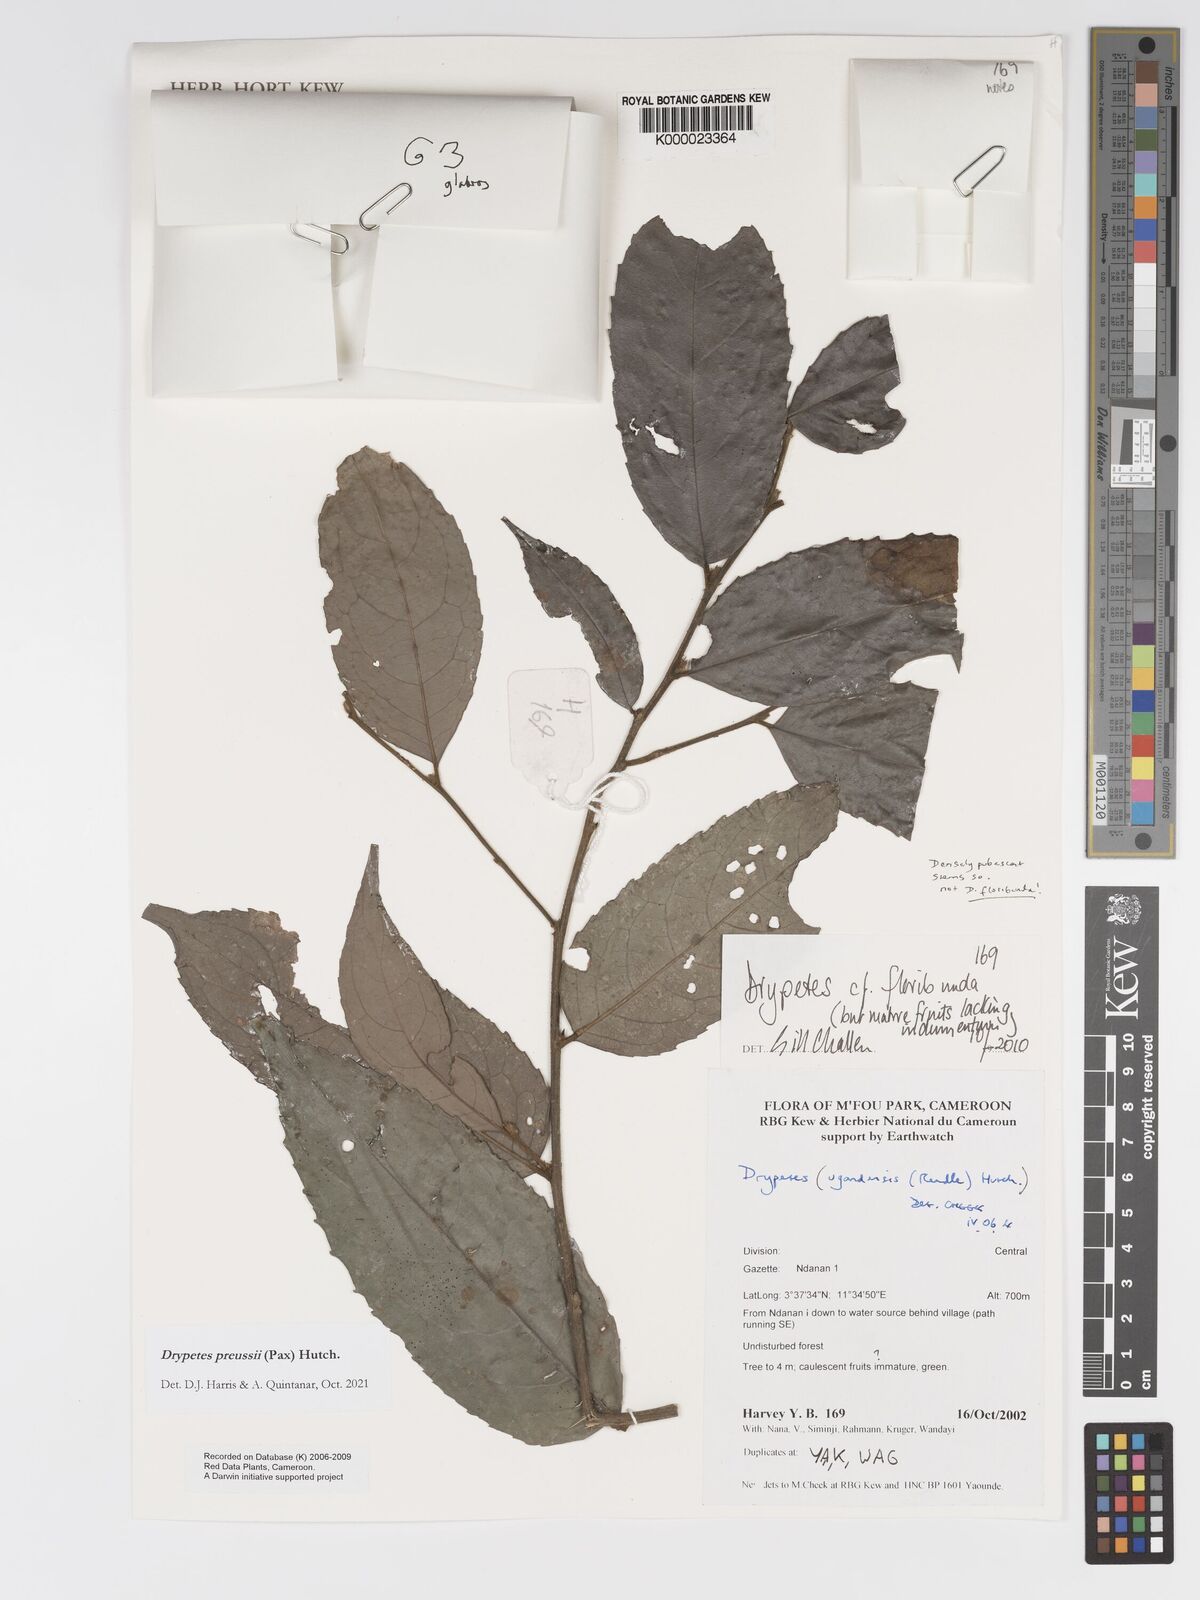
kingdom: Plantae
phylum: Tracheophyta
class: Magnoliopsida
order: Malpighiales
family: Putranjivaceae
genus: Drypetes
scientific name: Drypetes
